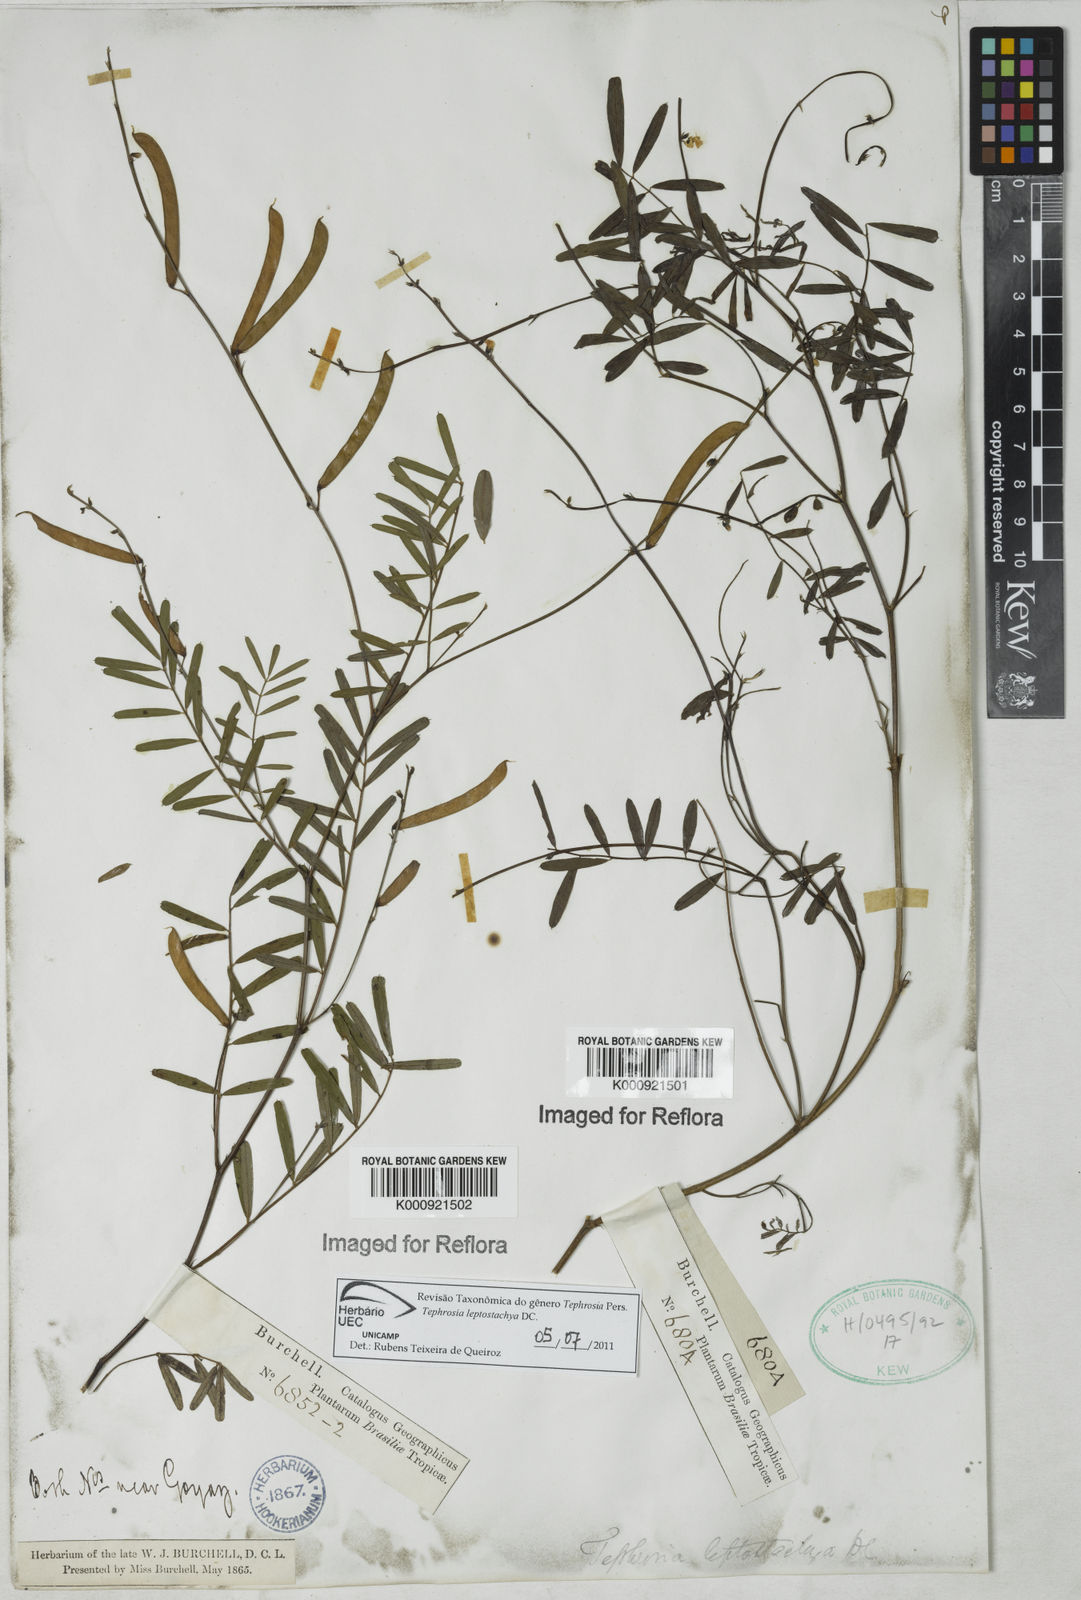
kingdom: Plantae
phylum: Tracheophyta
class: Magnoliopsida
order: Fabales
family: Fabaceae
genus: Tephrosia
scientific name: Tephrosia purpurea
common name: Fishpoison
